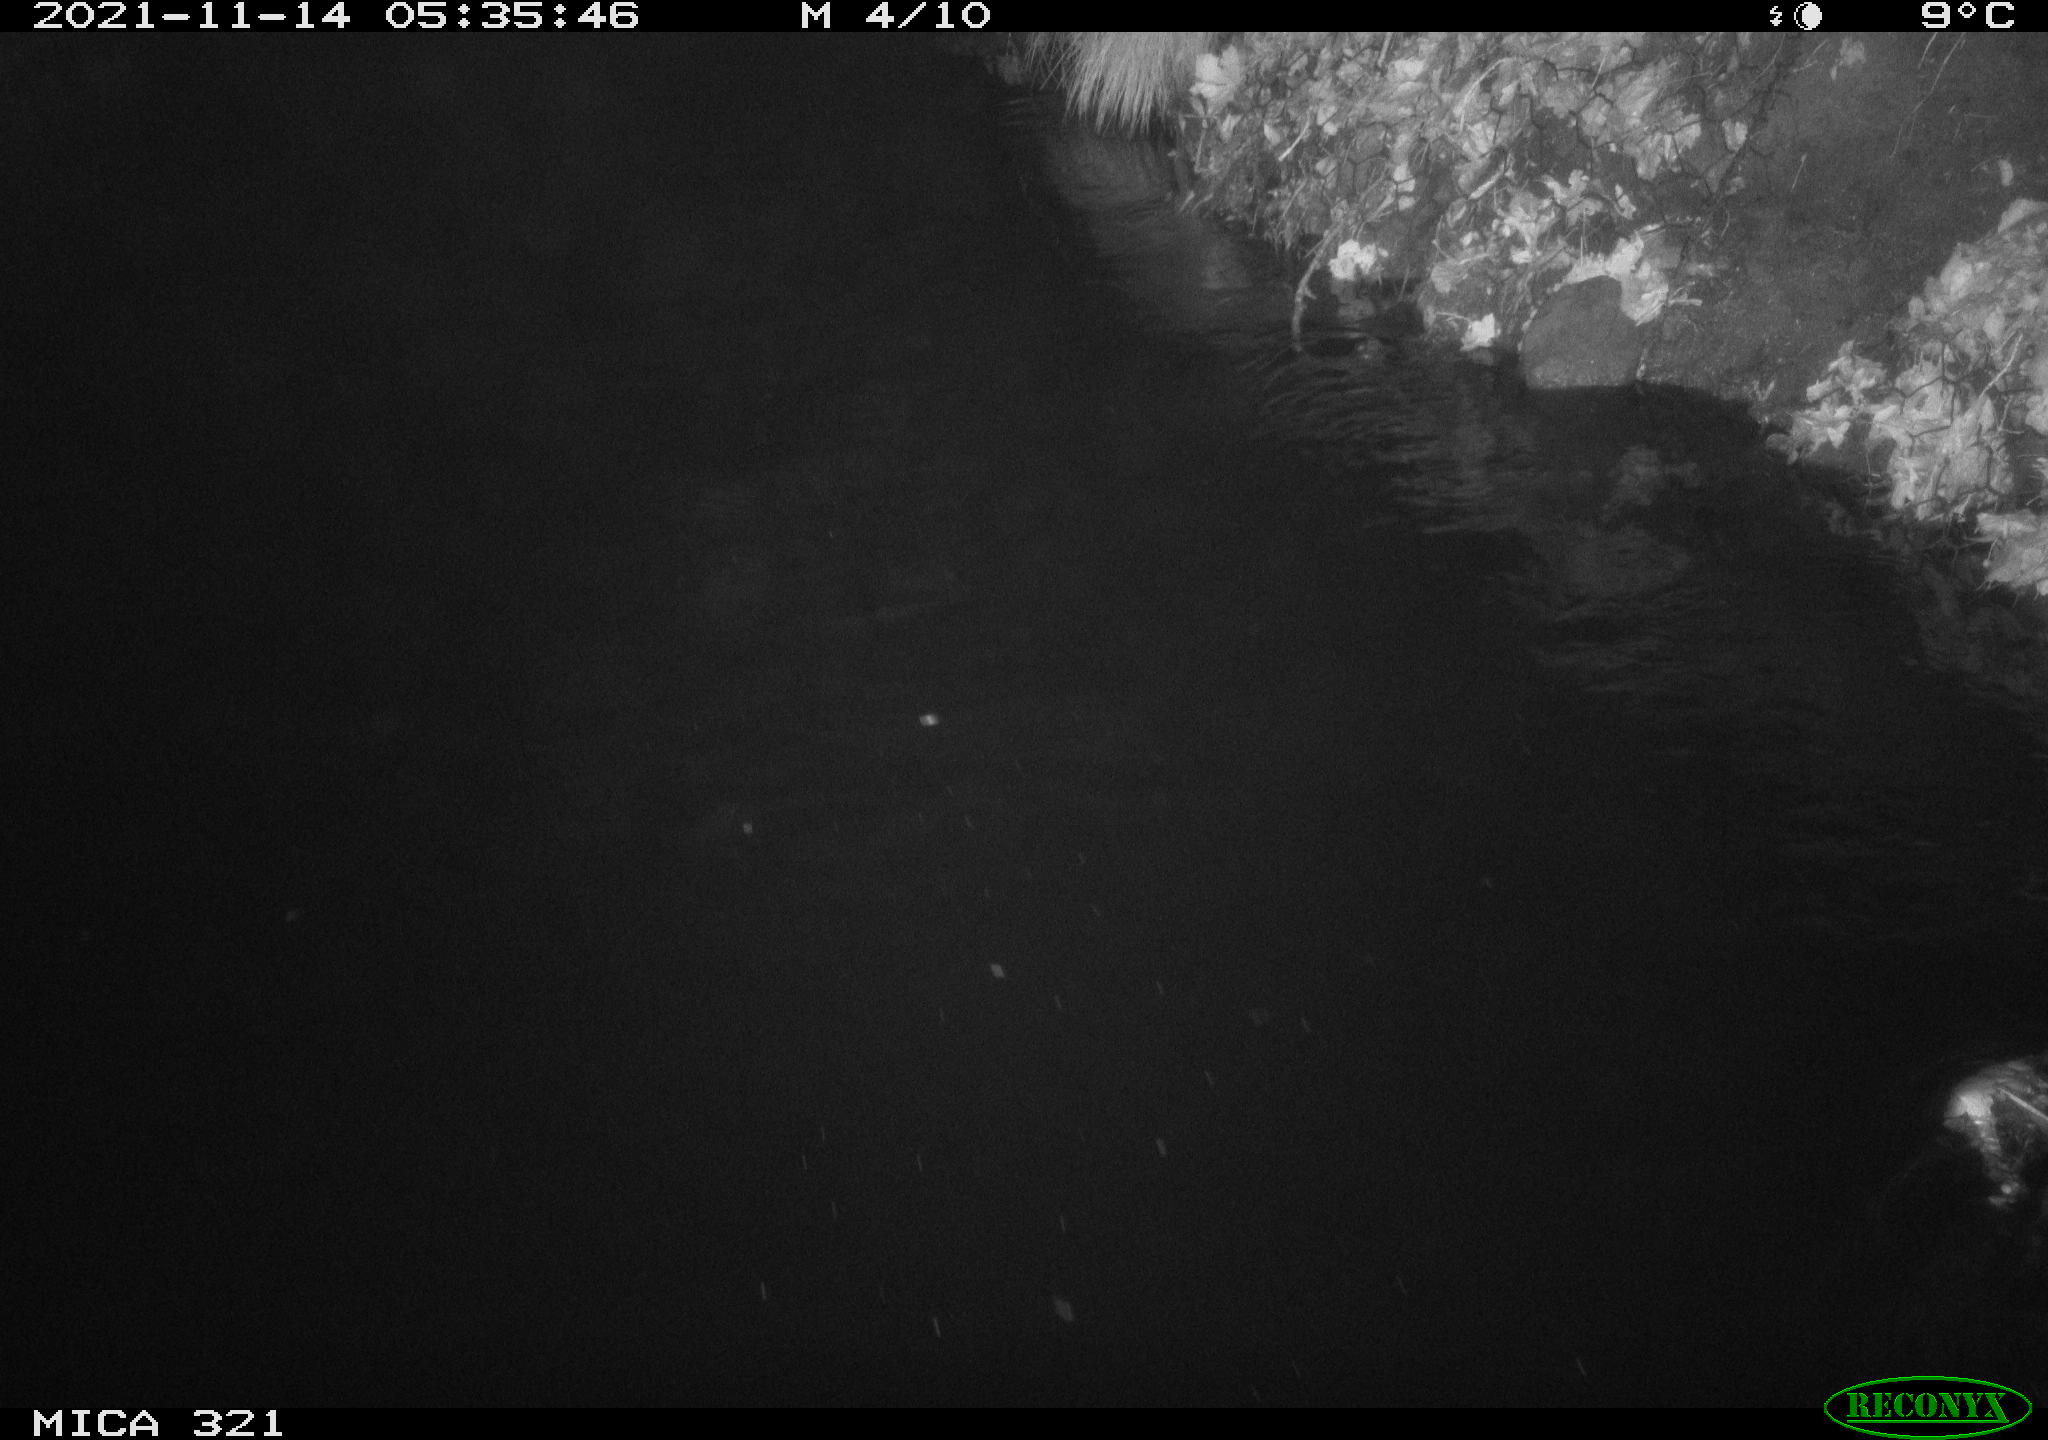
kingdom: Animalia
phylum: Chordata
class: Mammalia
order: Rodentia
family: Muridae
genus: Rattus
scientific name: Rattus norvegicus
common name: Brown rat
